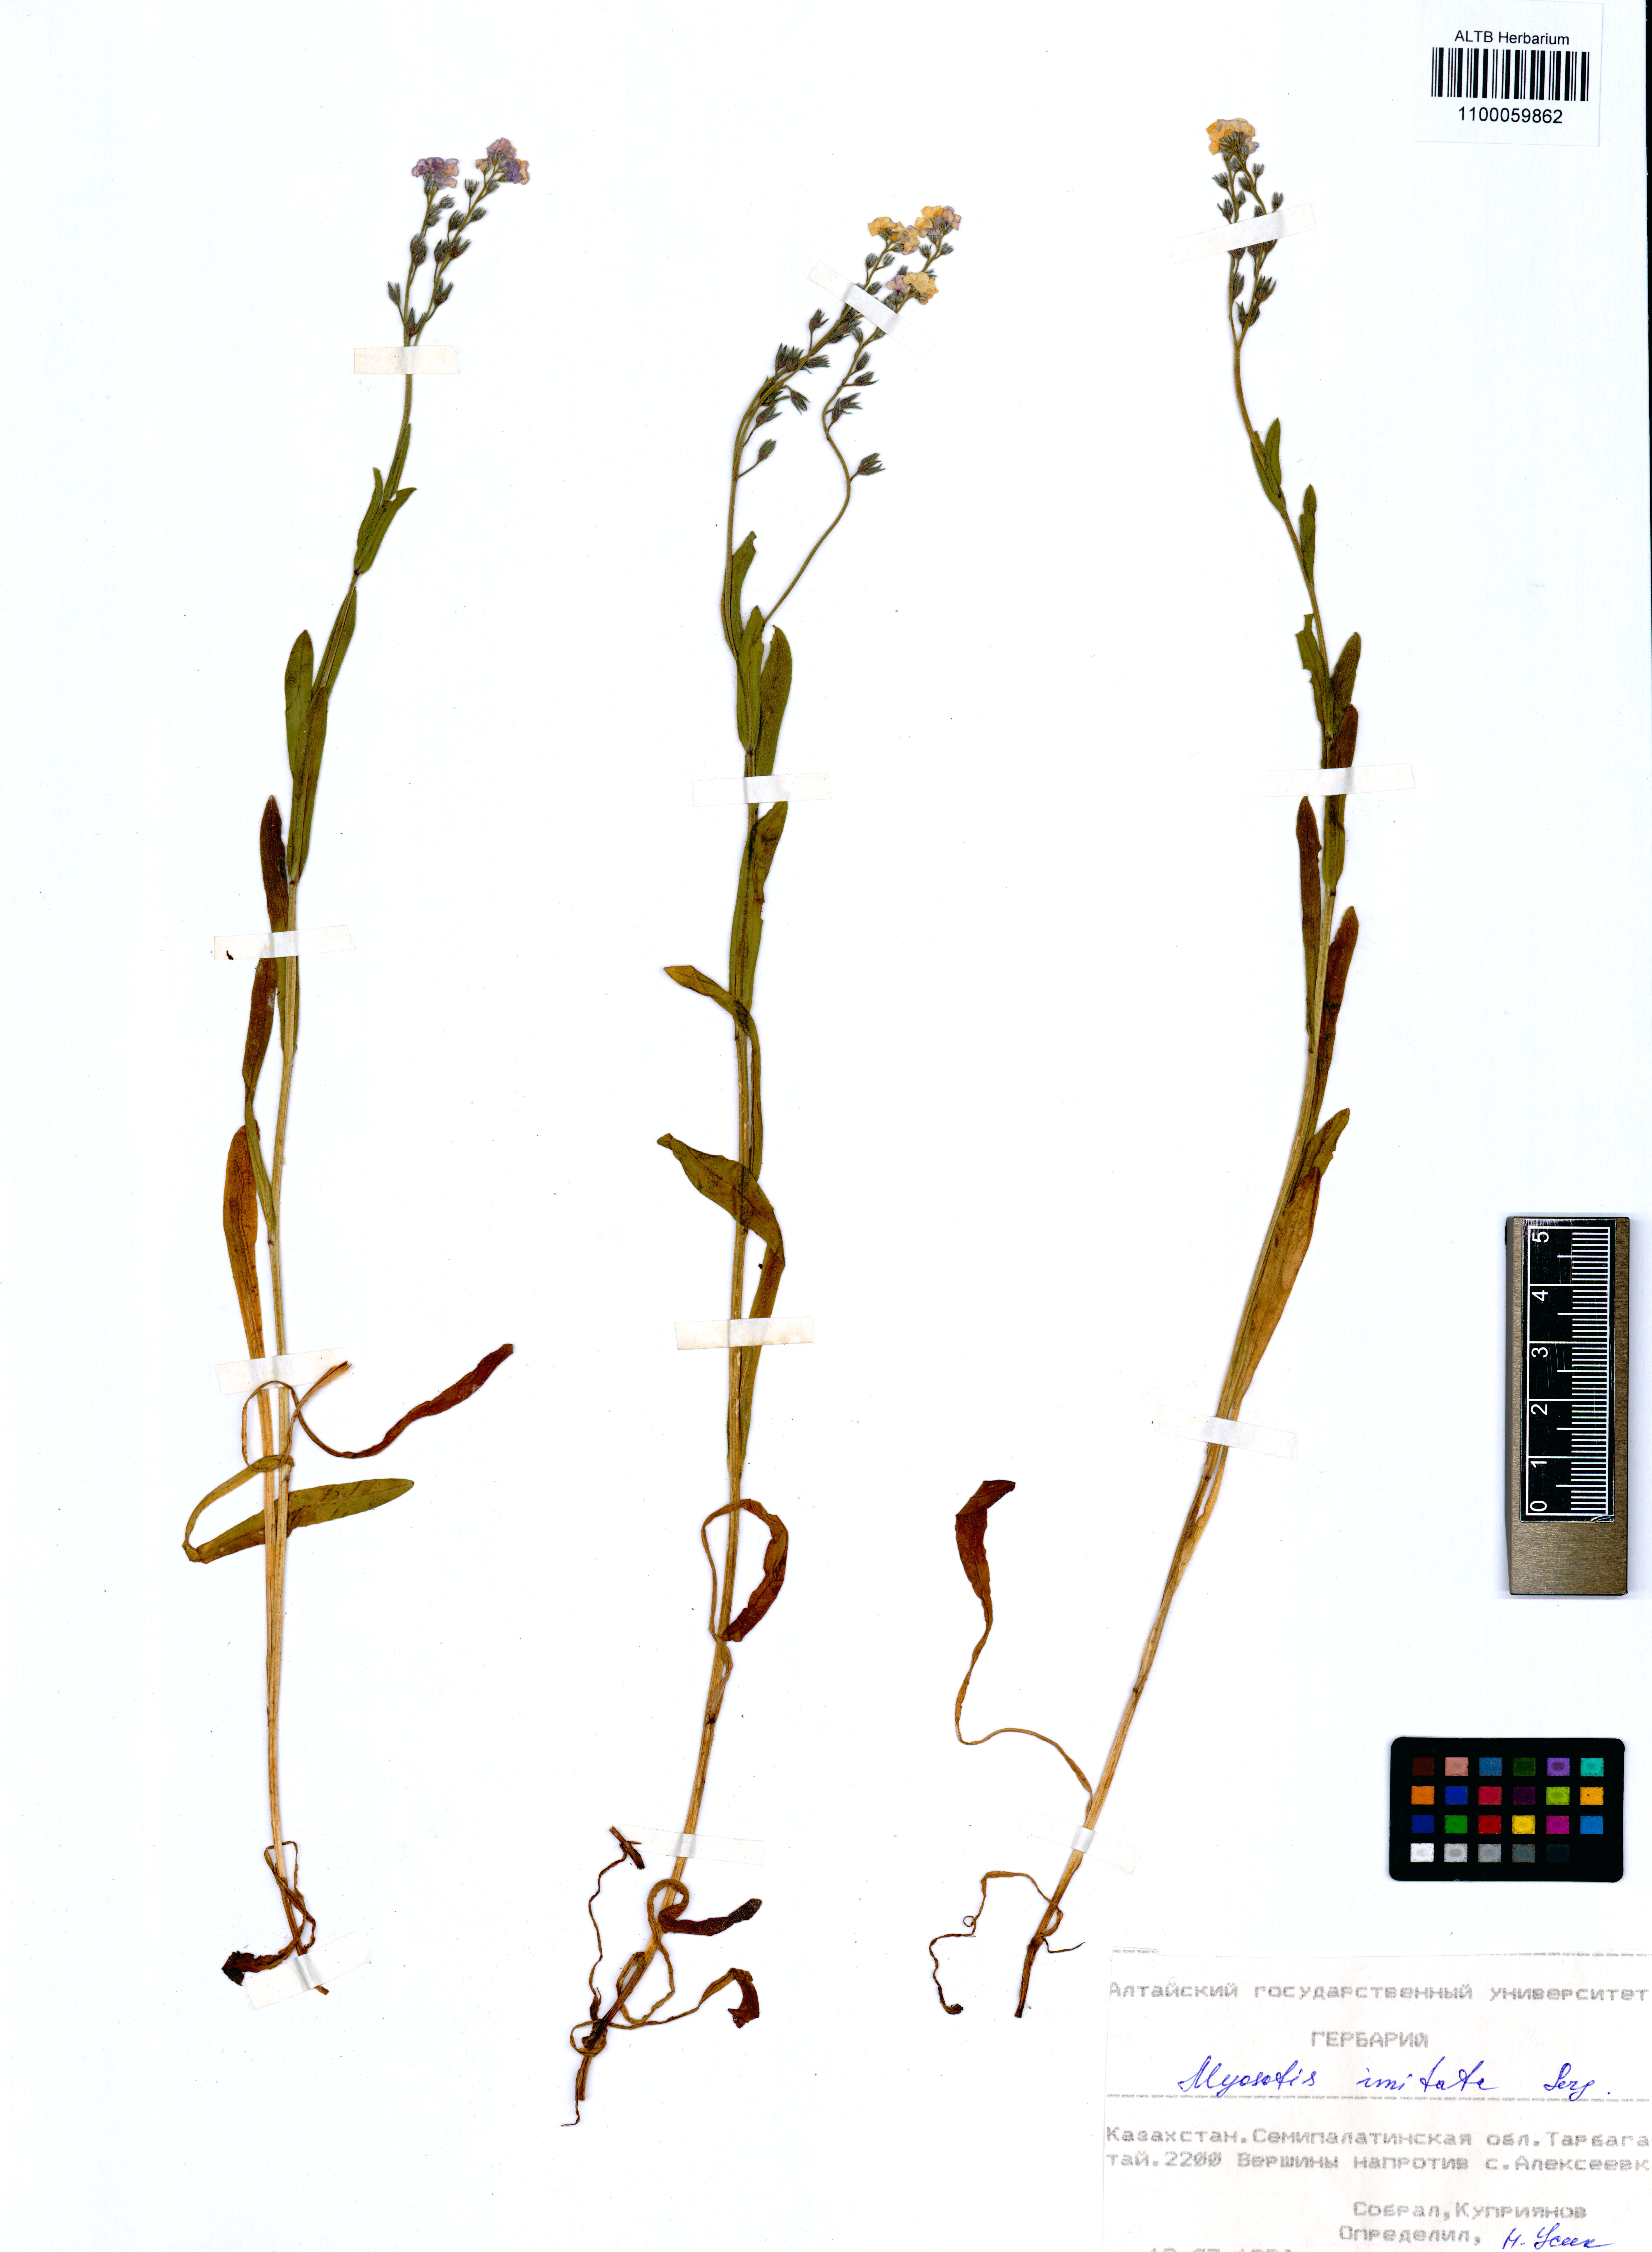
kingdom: Plantae
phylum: Tracheophyta
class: Magnoliopsida
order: Boraginales
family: Boraginaceae
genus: Myosotis
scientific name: Myosotis imitata
